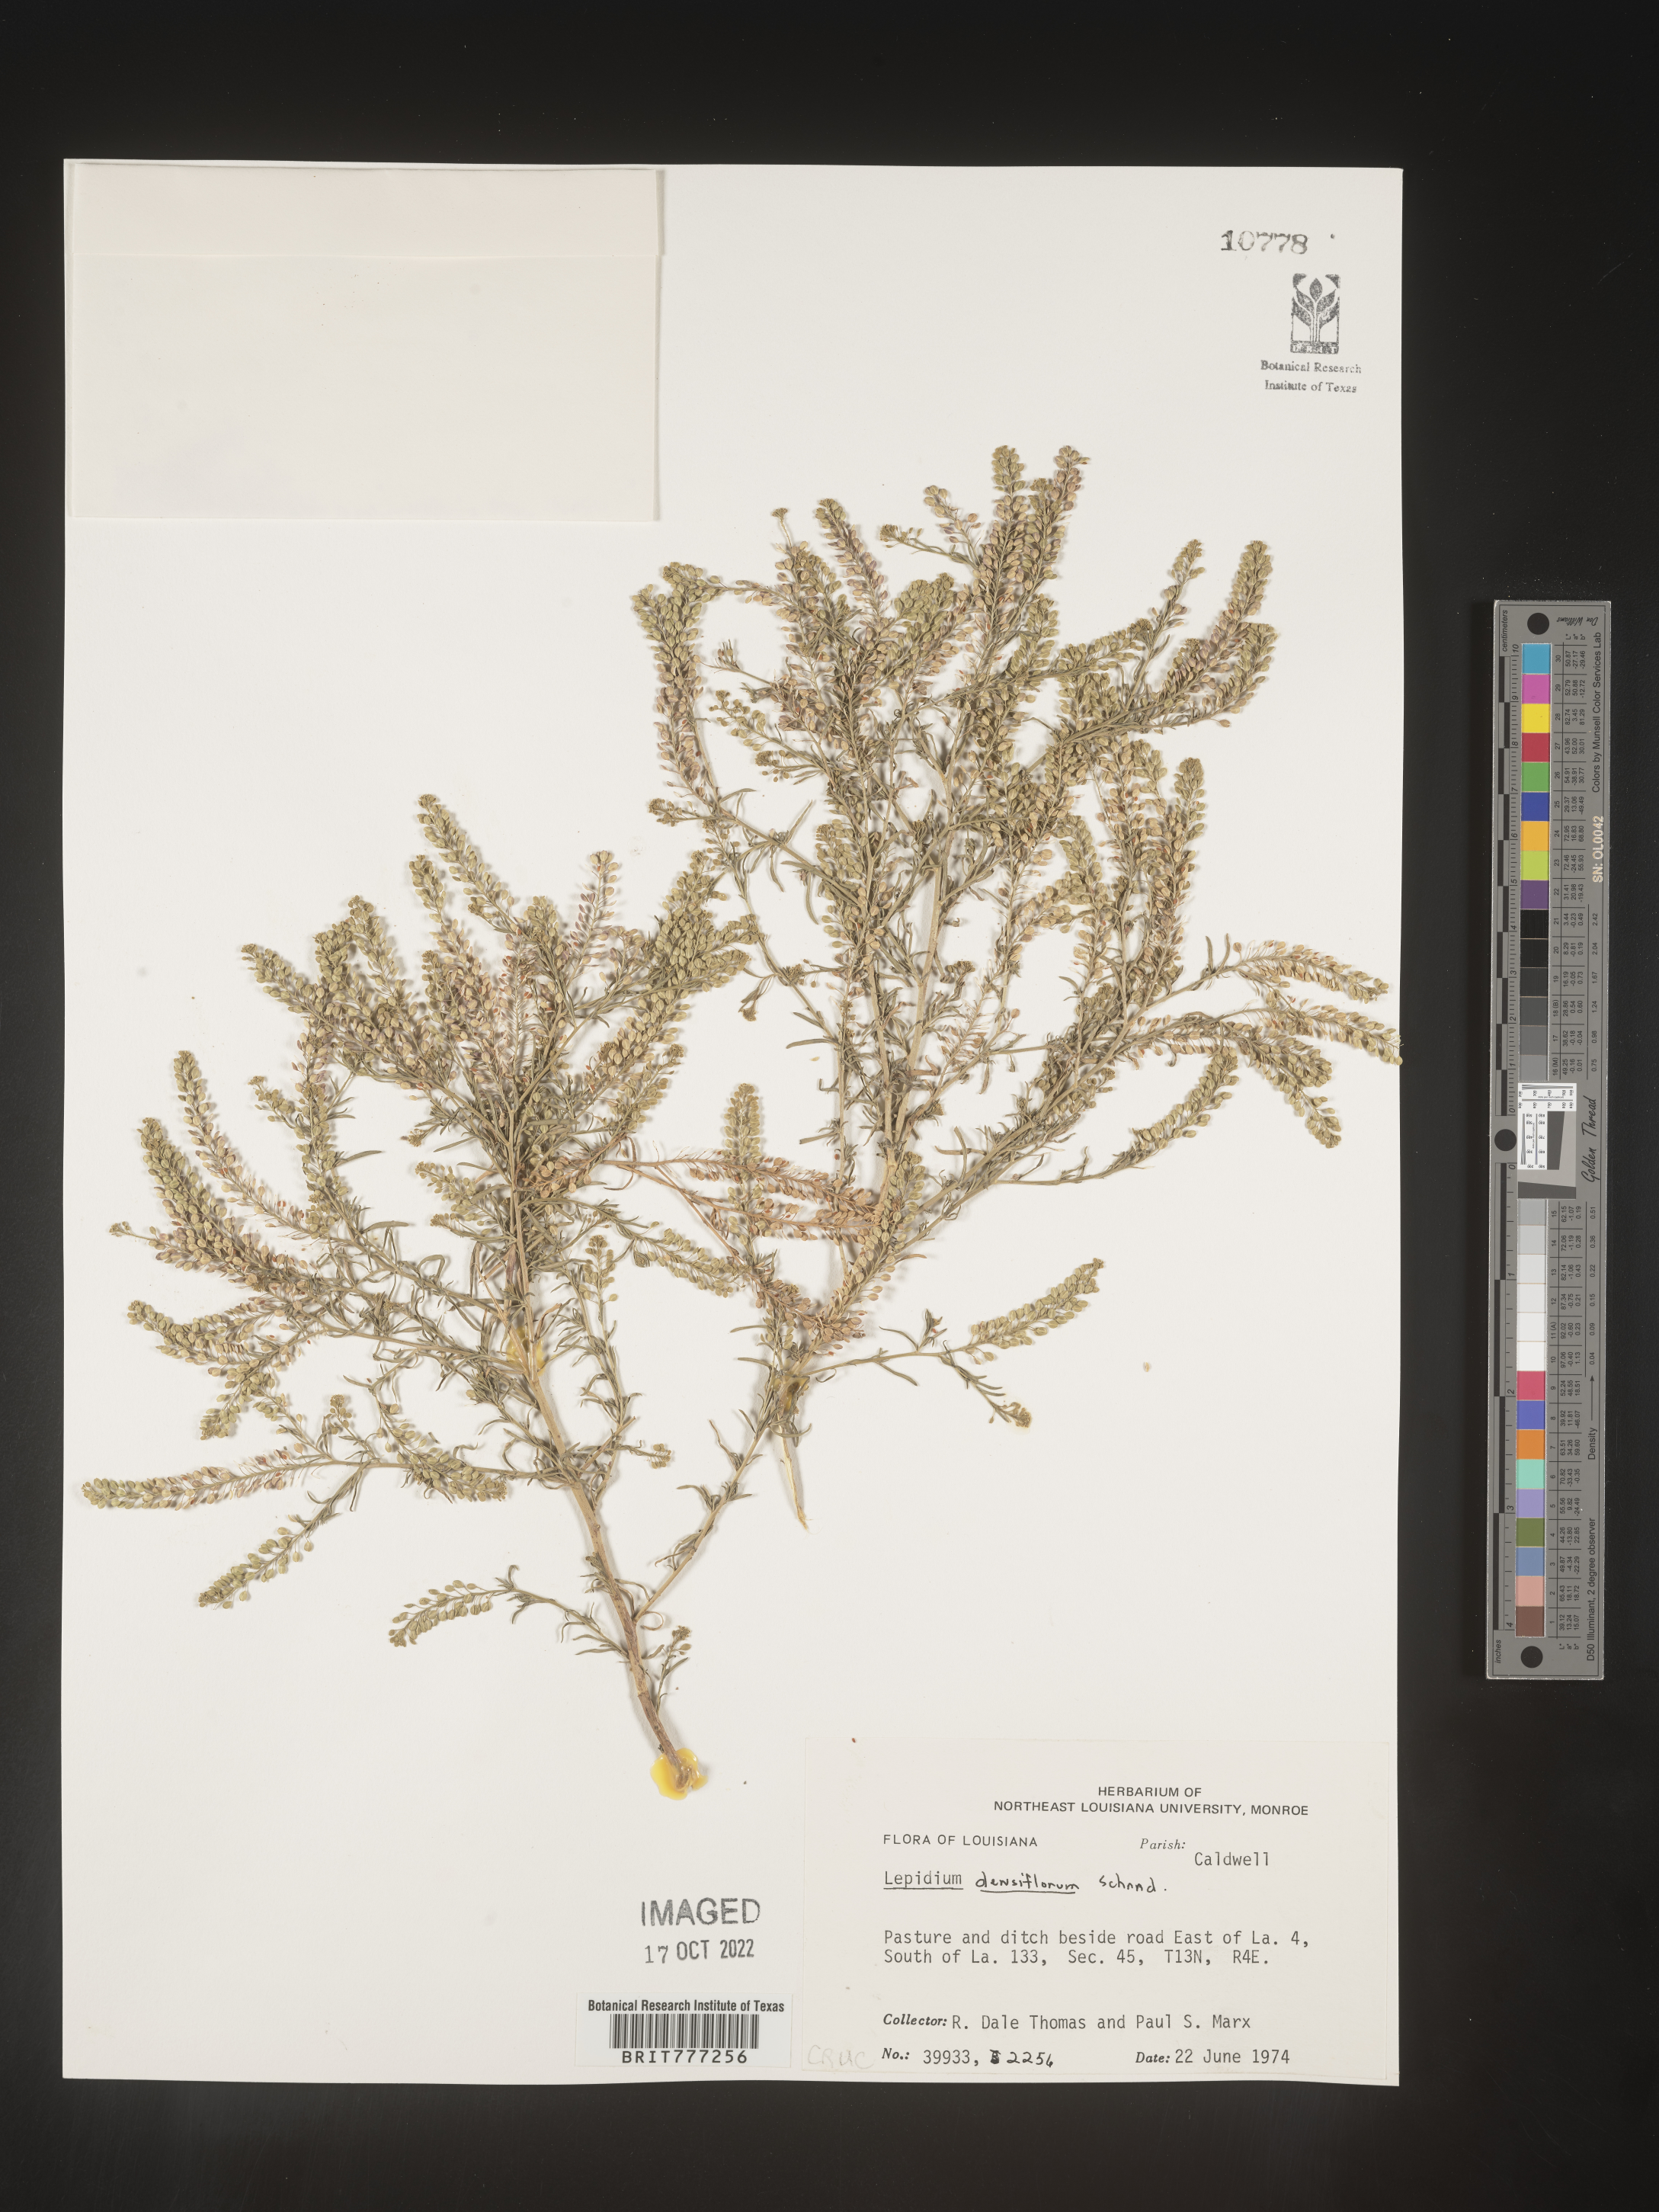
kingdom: Plantae
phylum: Tracheophyta
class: Magnoliopsida
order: Brassicales
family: Brassicaceae
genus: Lepidium
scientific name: Lepidium densiflorum
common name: Miner's pepperwort
